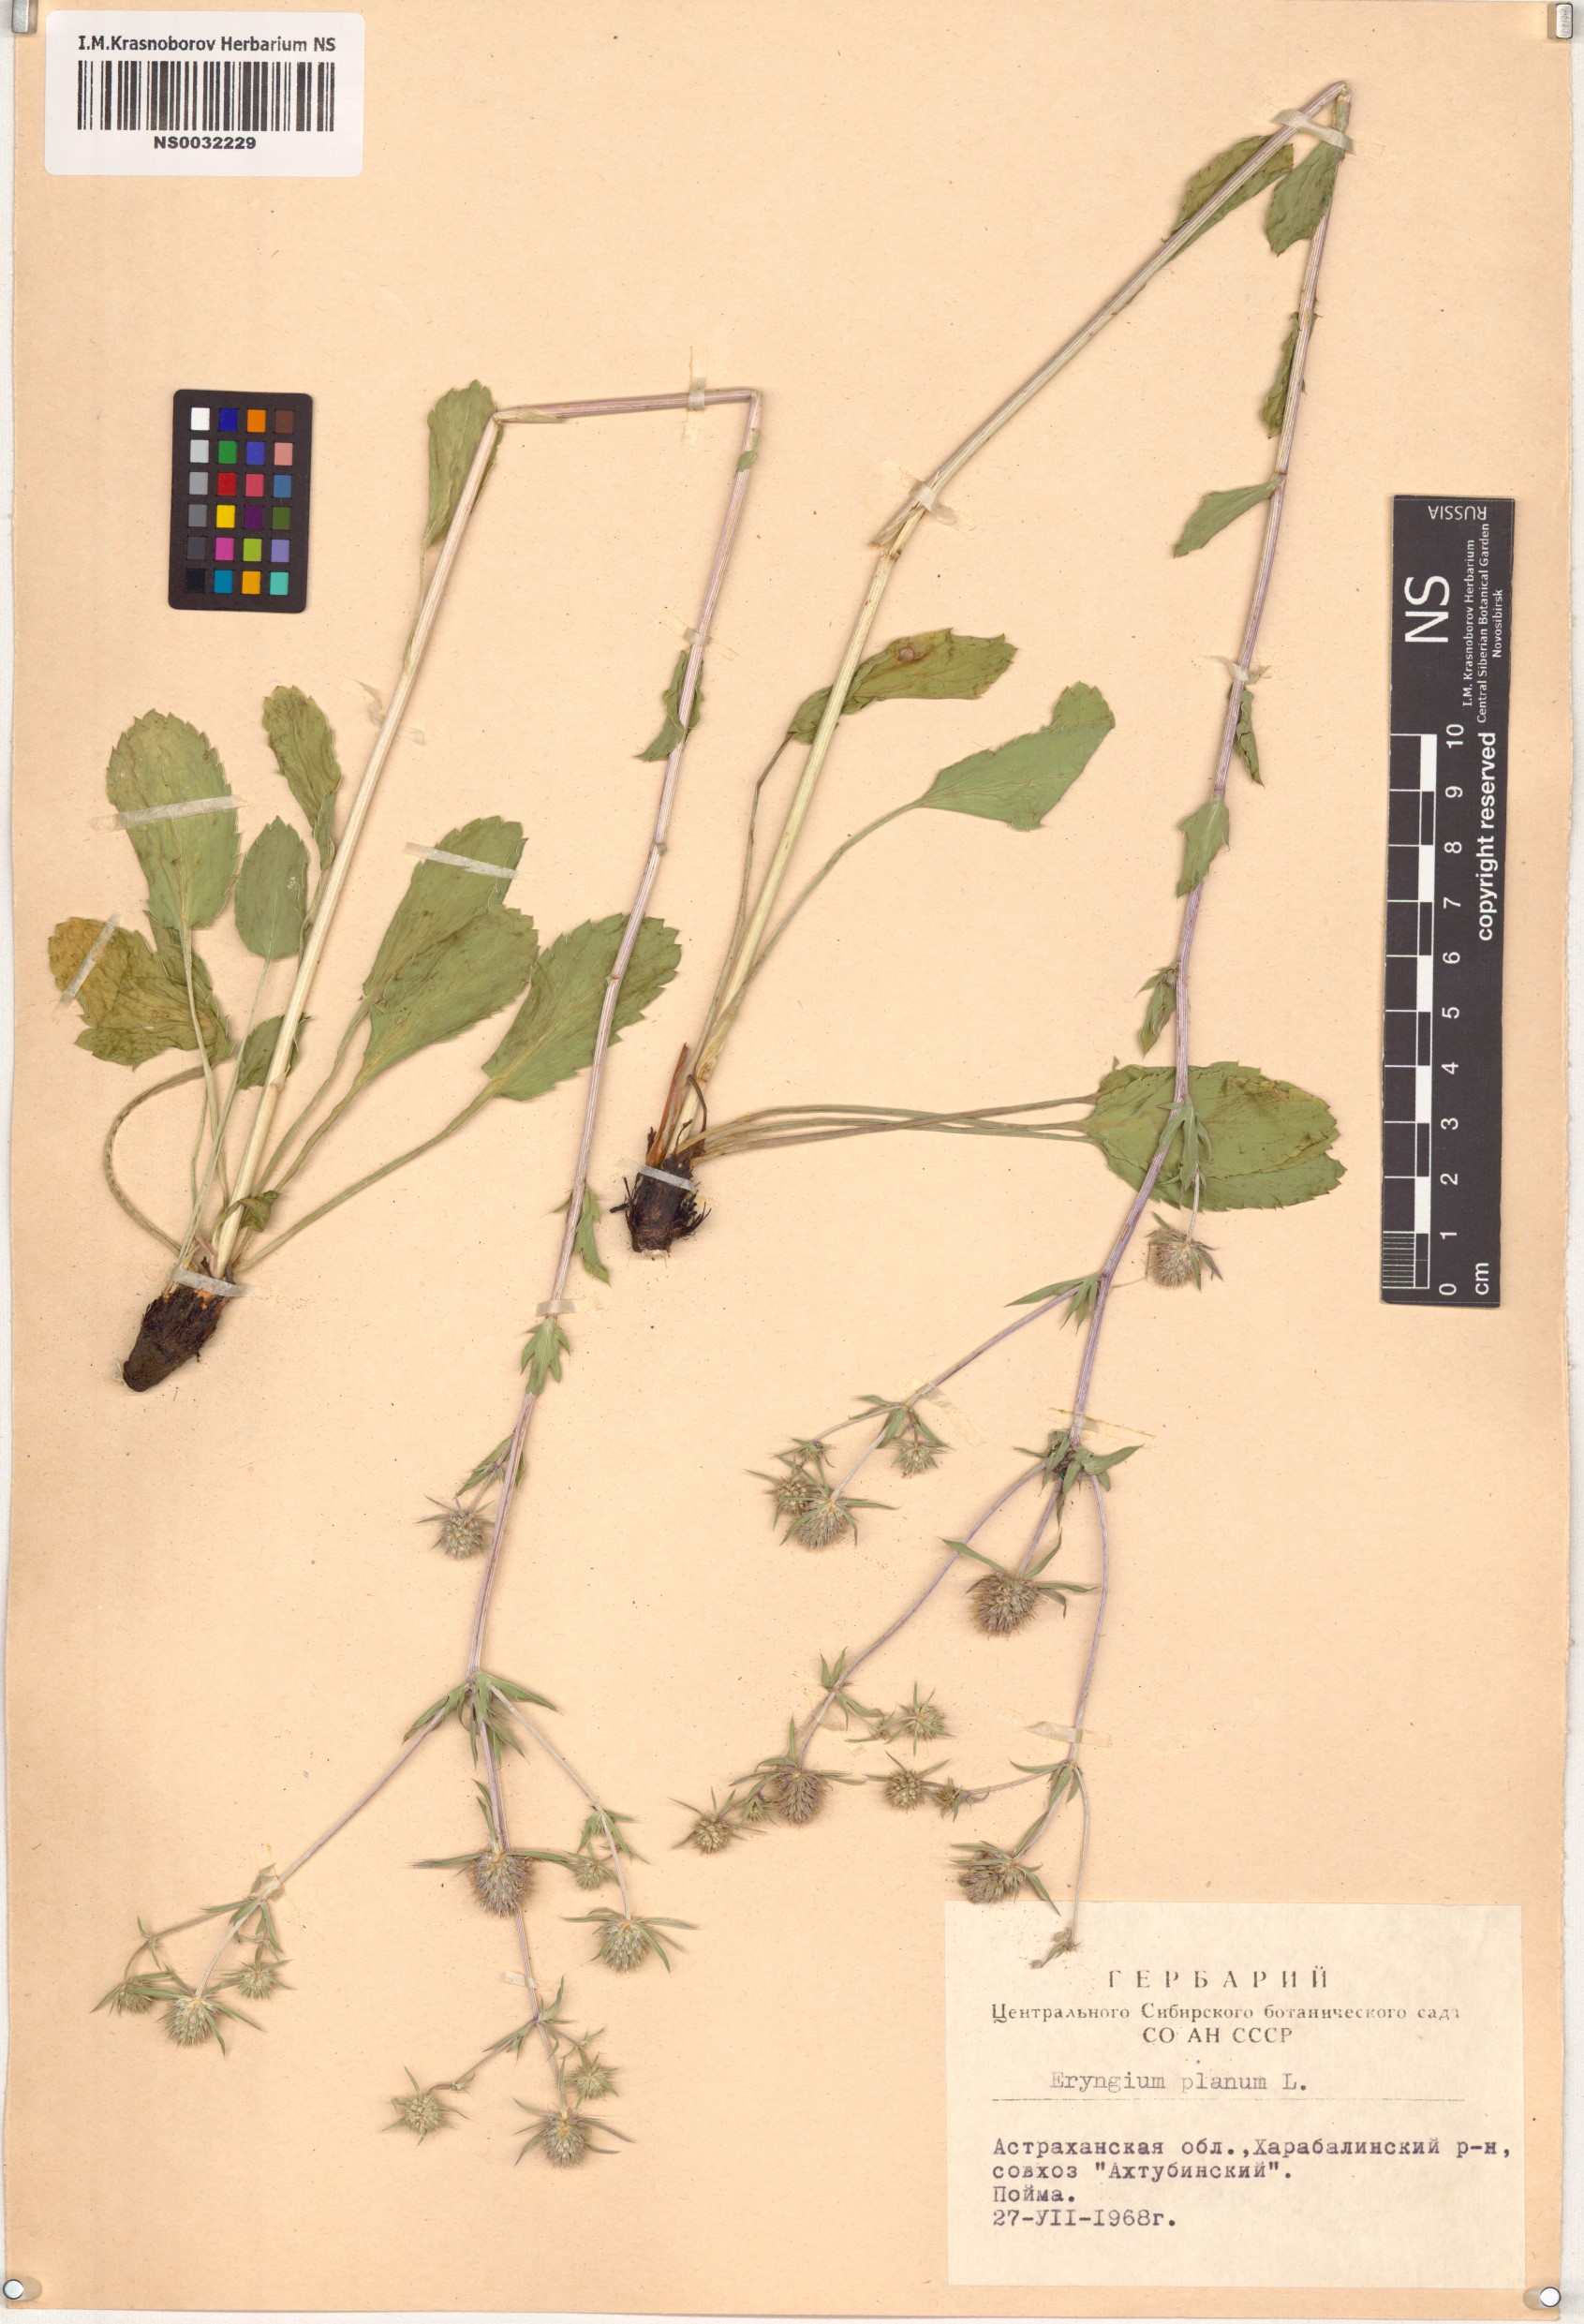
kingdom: Plantae
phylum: Tracheophyta
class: Magnoliopsida
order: Apiales
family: Apiaceae
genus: Eryngium
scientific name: Eryngium planum
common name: Blue eryngo
